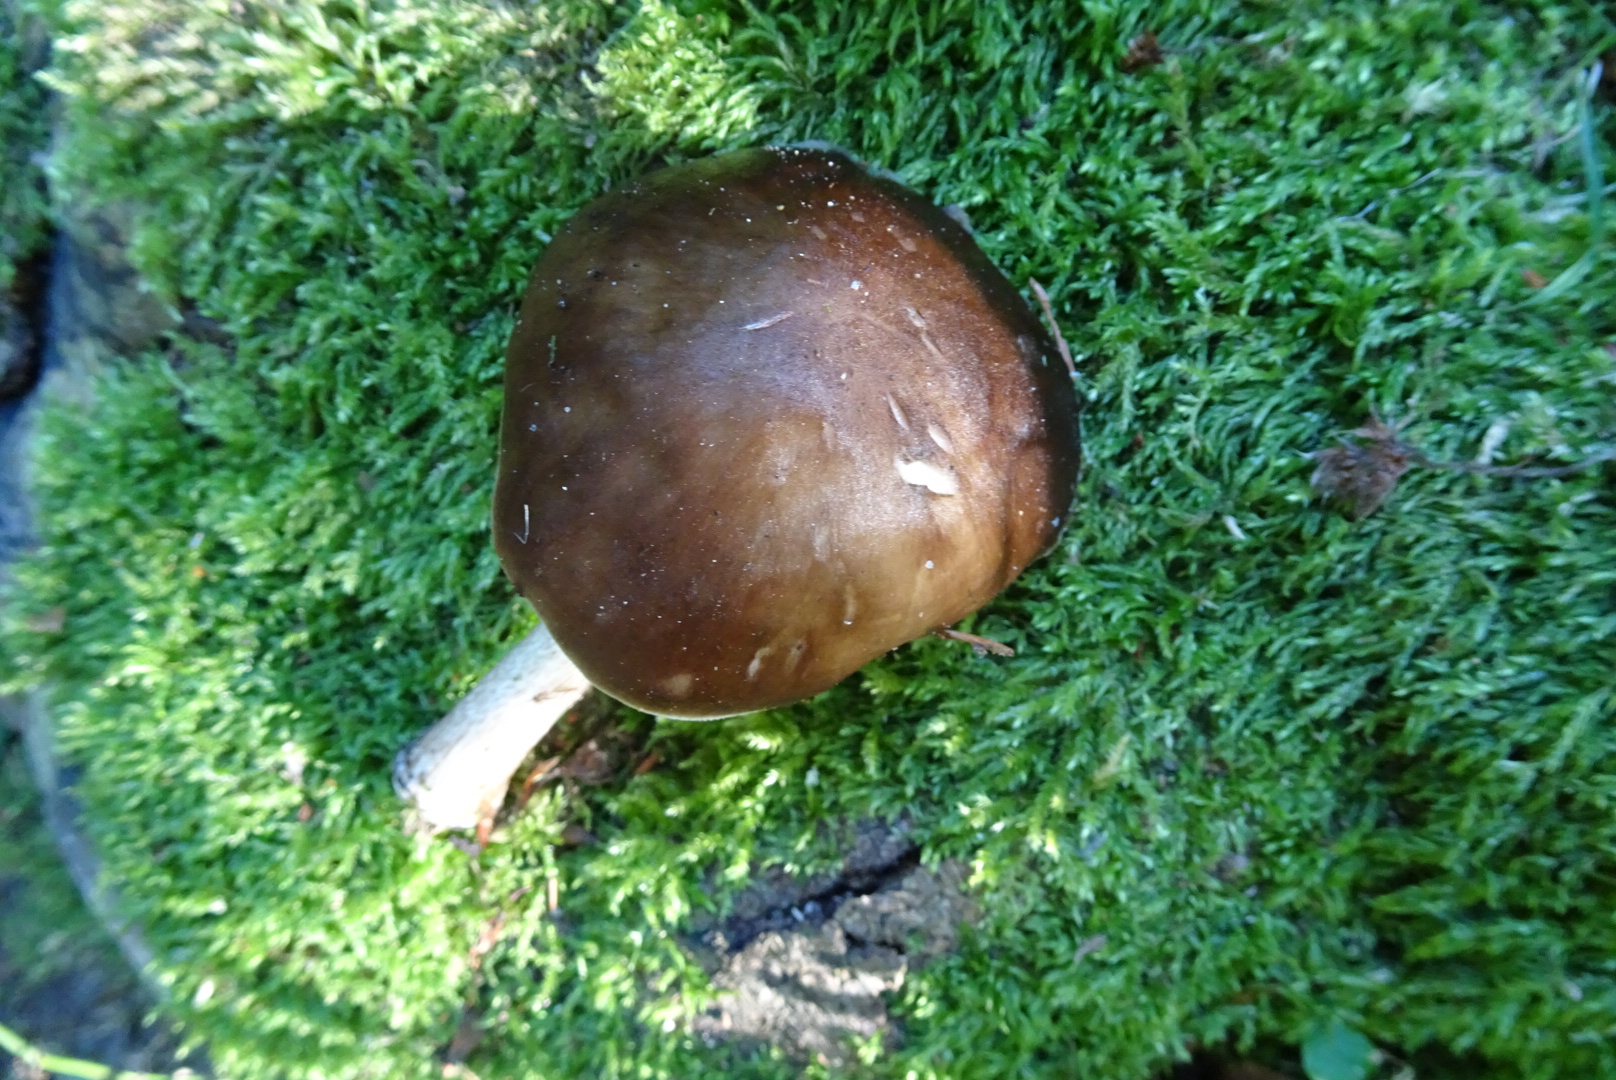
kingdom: Fungi
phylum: Basidiomycota
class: Agaricomycetes
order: Agaricales
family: Pluteaceae
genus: Pluteus
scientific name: Pluteus cervinus
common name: sodfarvet skærmhat
